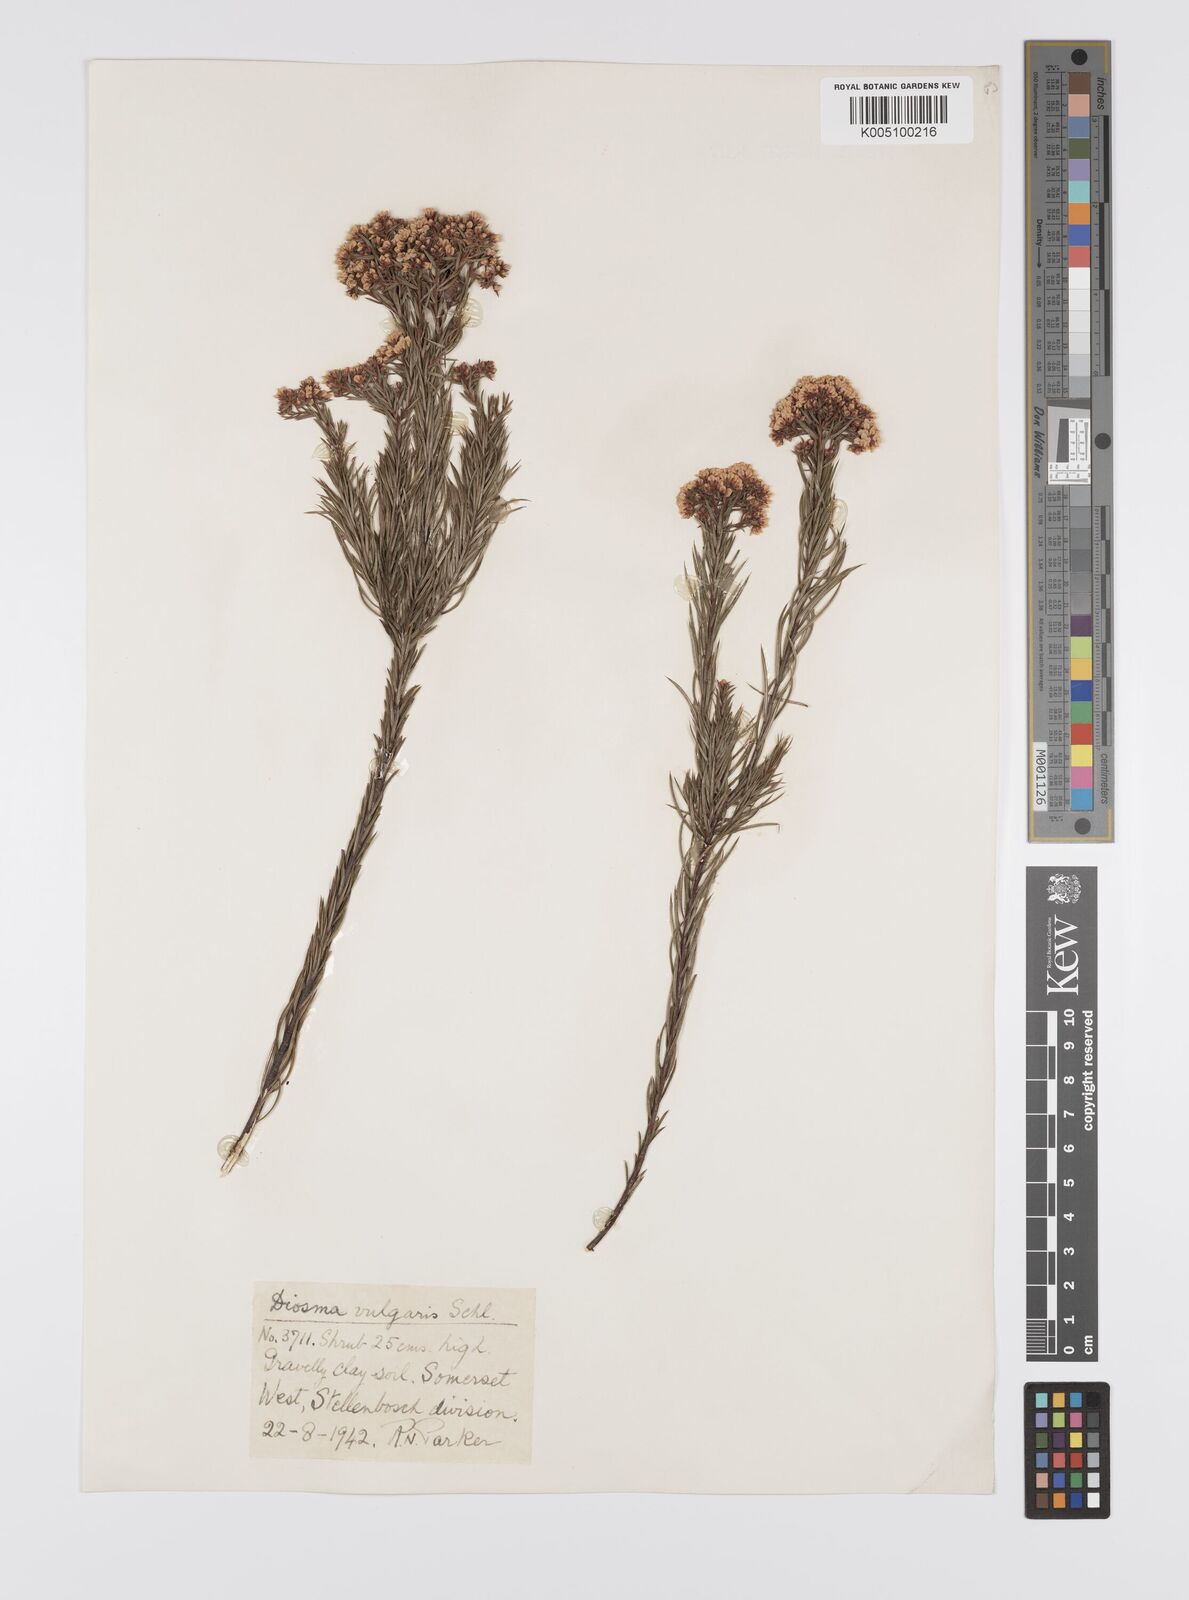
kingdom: Plantae
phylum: Tracheophyta
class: Magnoliopsida
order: Sapindales
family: Rutaceae
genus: Diosma
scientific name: Diosma hirsuta
